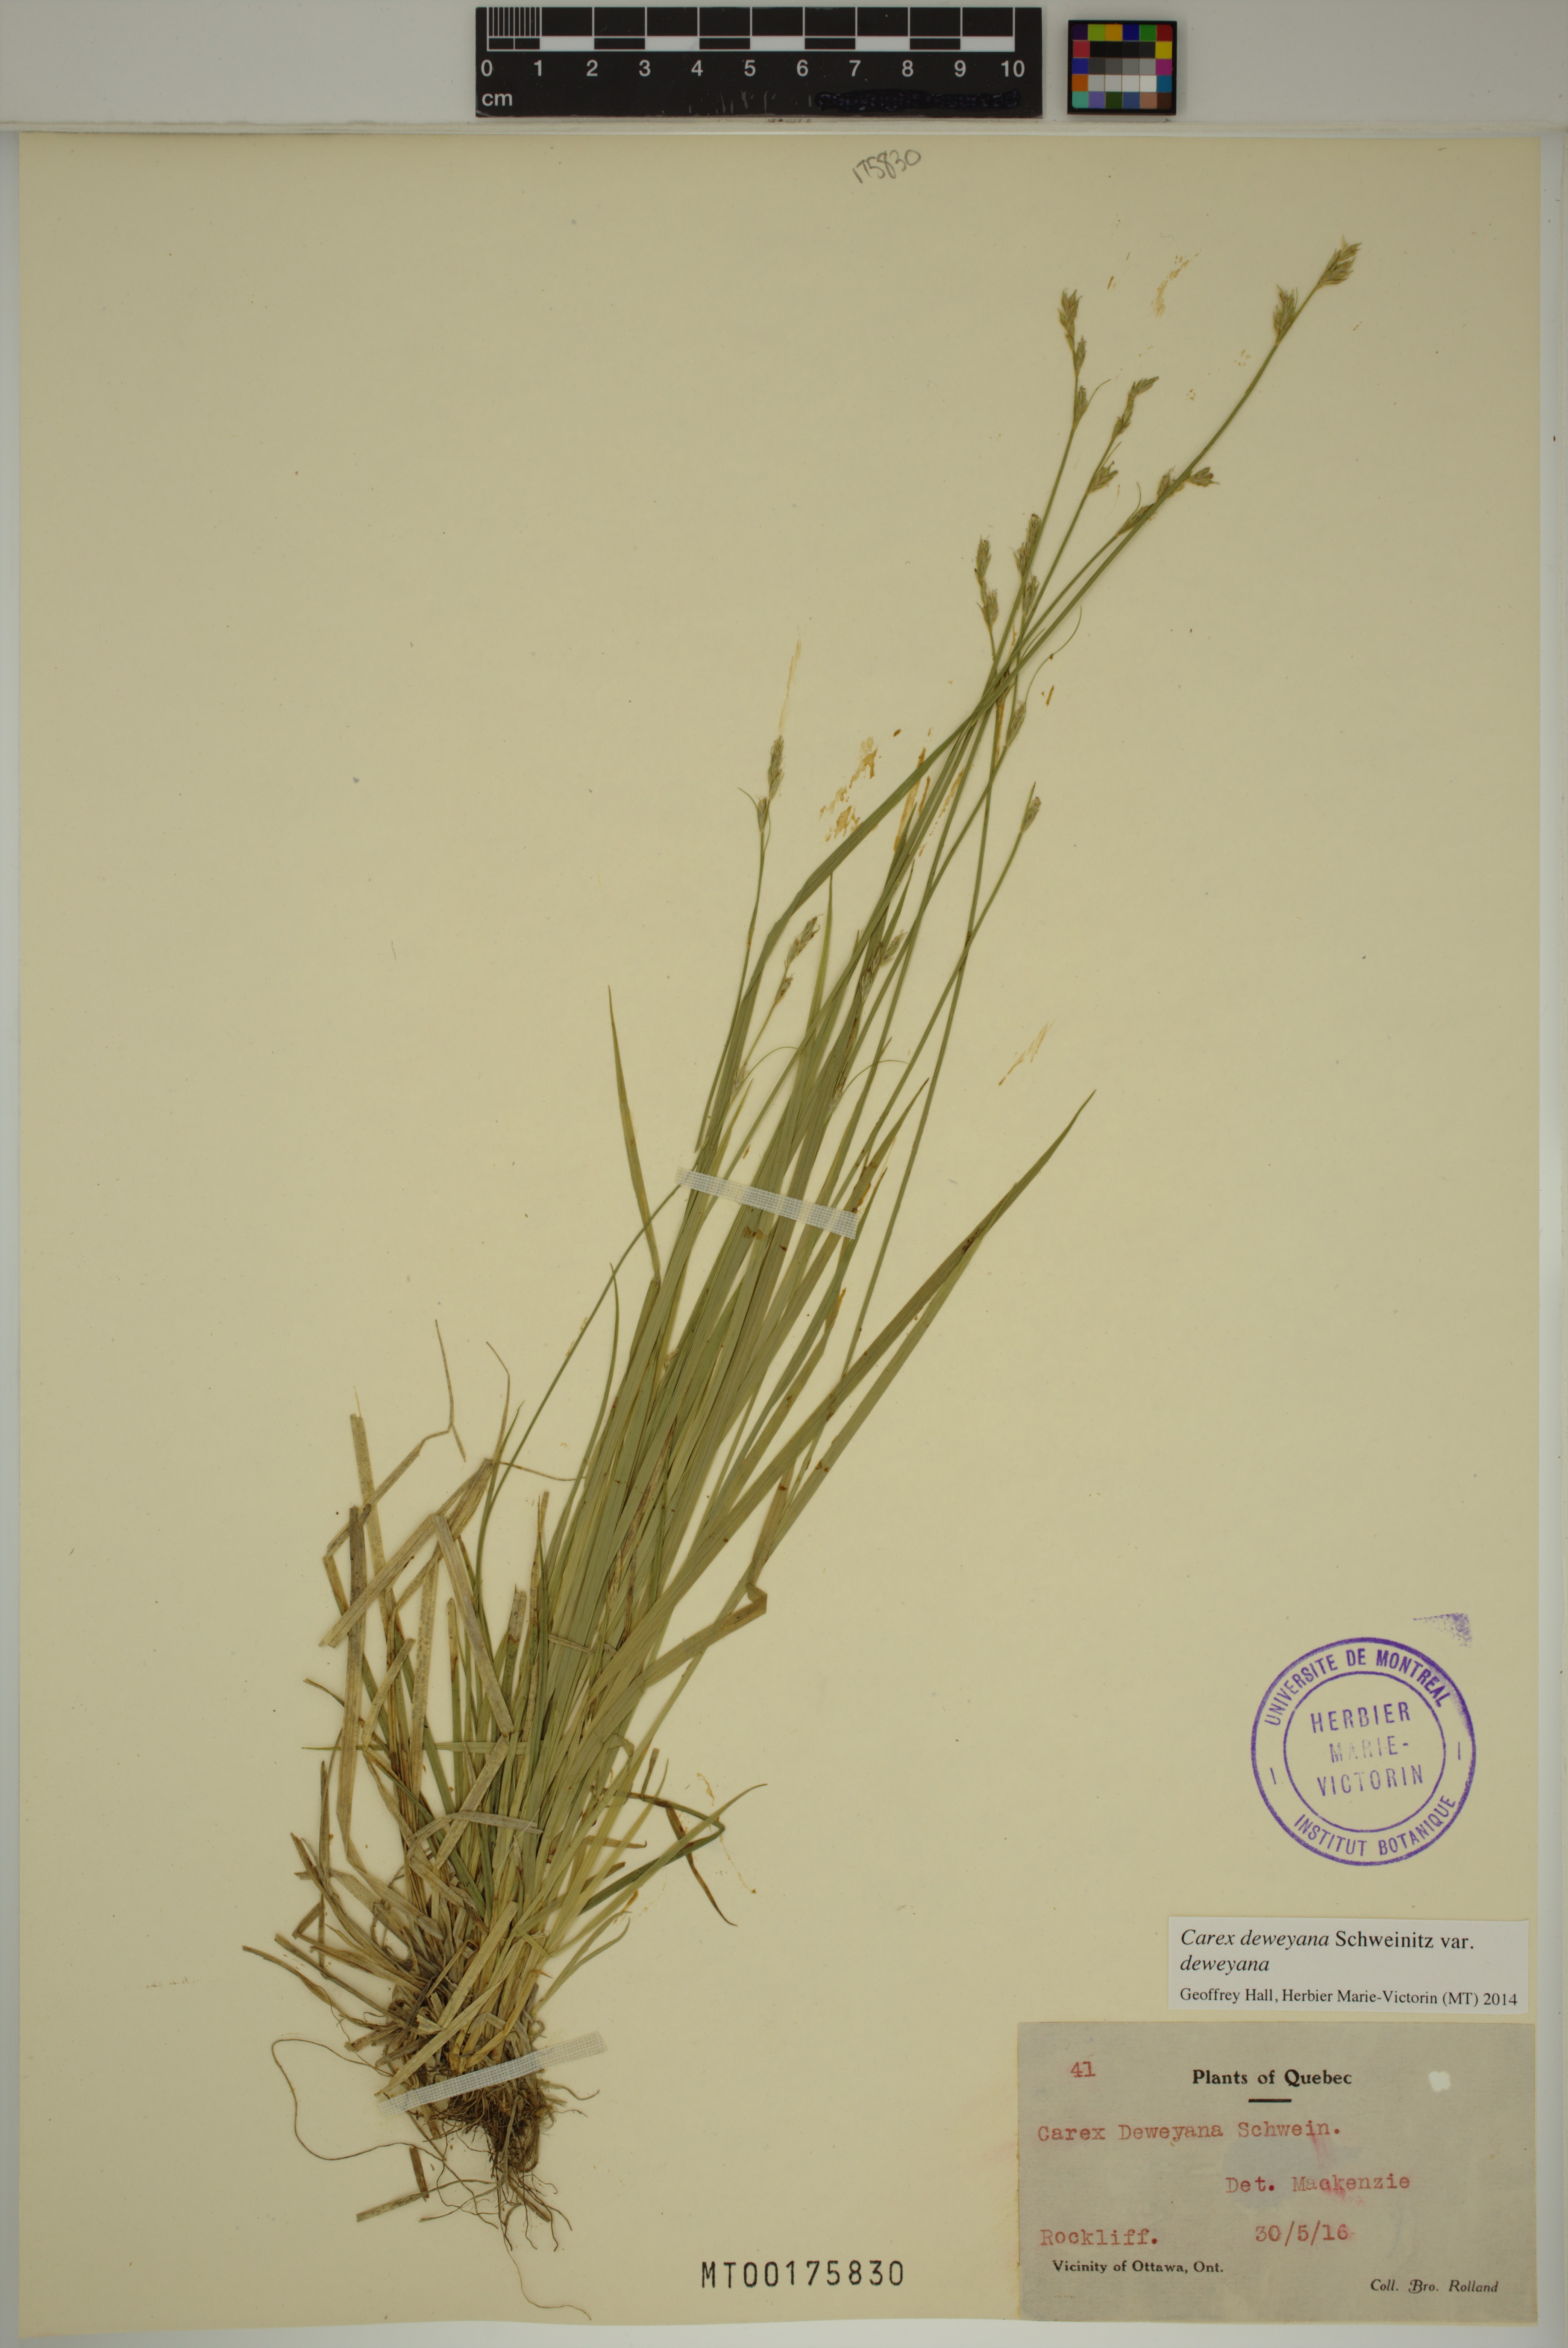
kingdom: Plantae
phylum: Tracheophyta
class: Liliopsida
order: Poales
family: Cyperaceae
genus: Carex
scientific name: Carex deweyana
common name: Dewey's sedge
